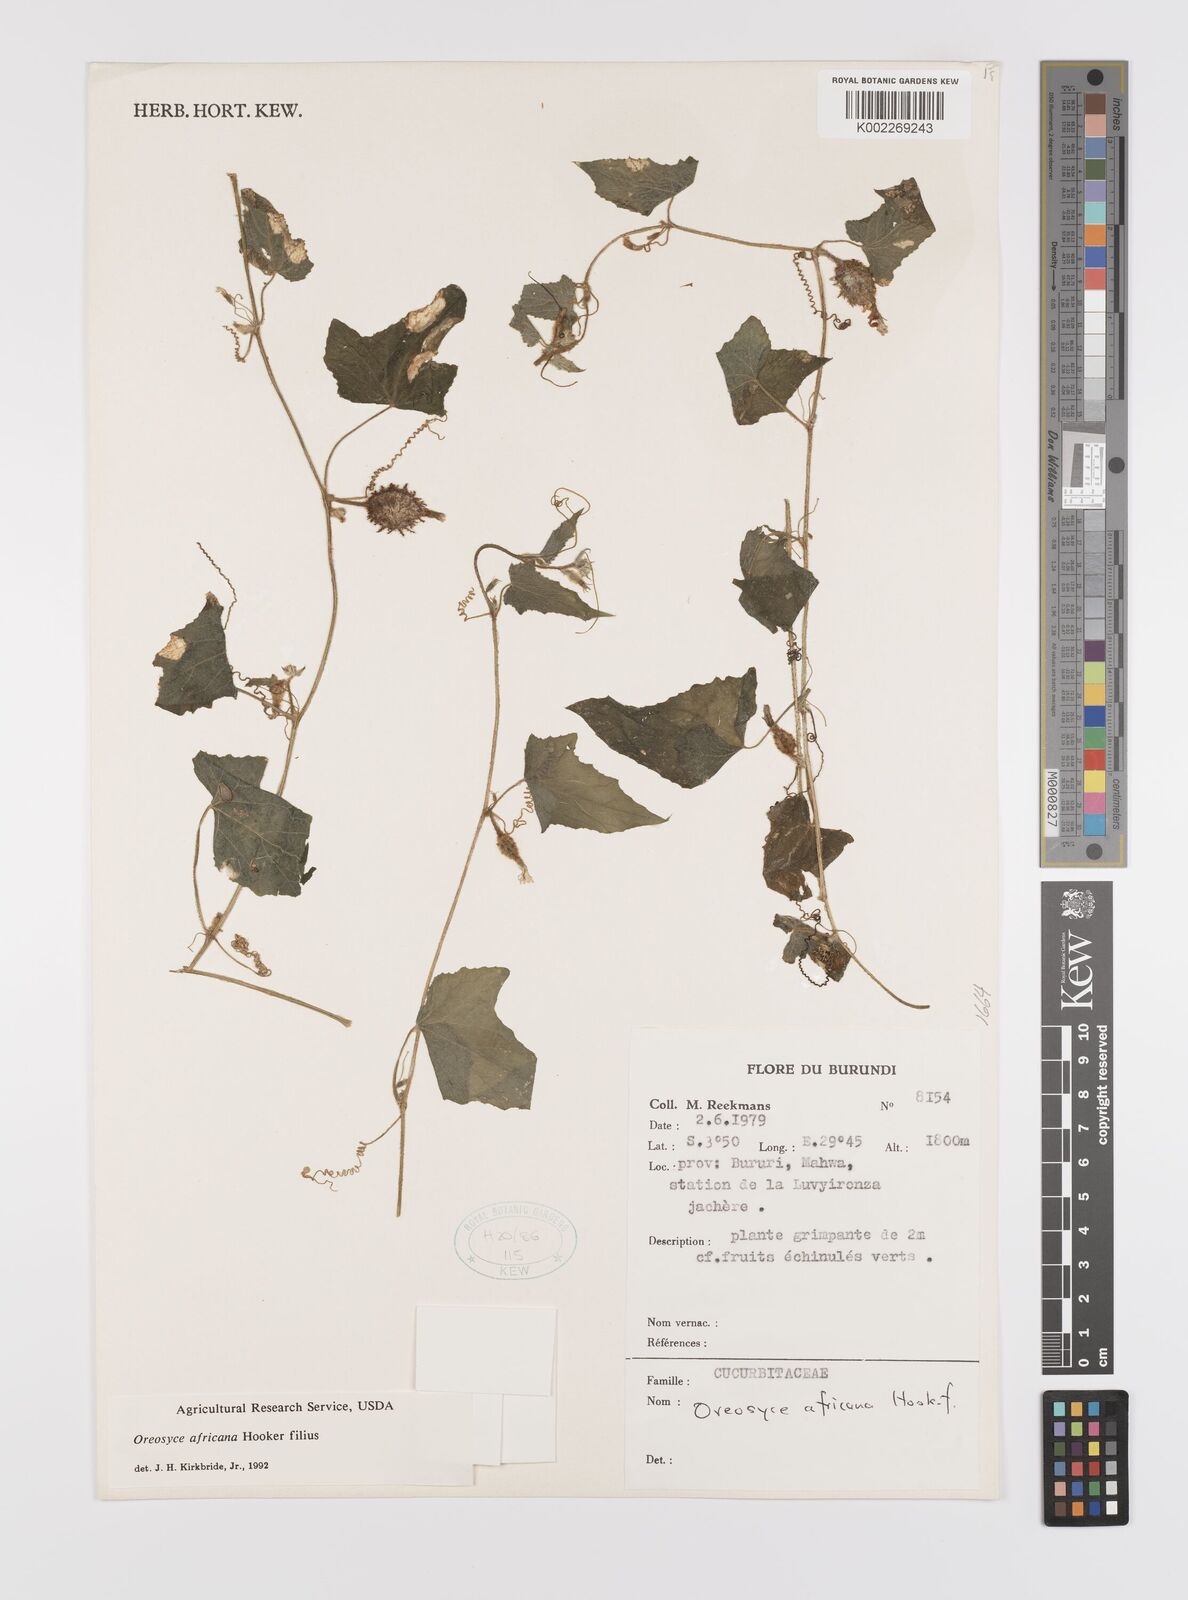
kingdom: Plantae
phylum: Tracheophyta
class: Magnoliopsida
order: Cucurbitales
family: Cucurbitaceae
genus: Cucumis
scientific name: Cucumis oreosyce
